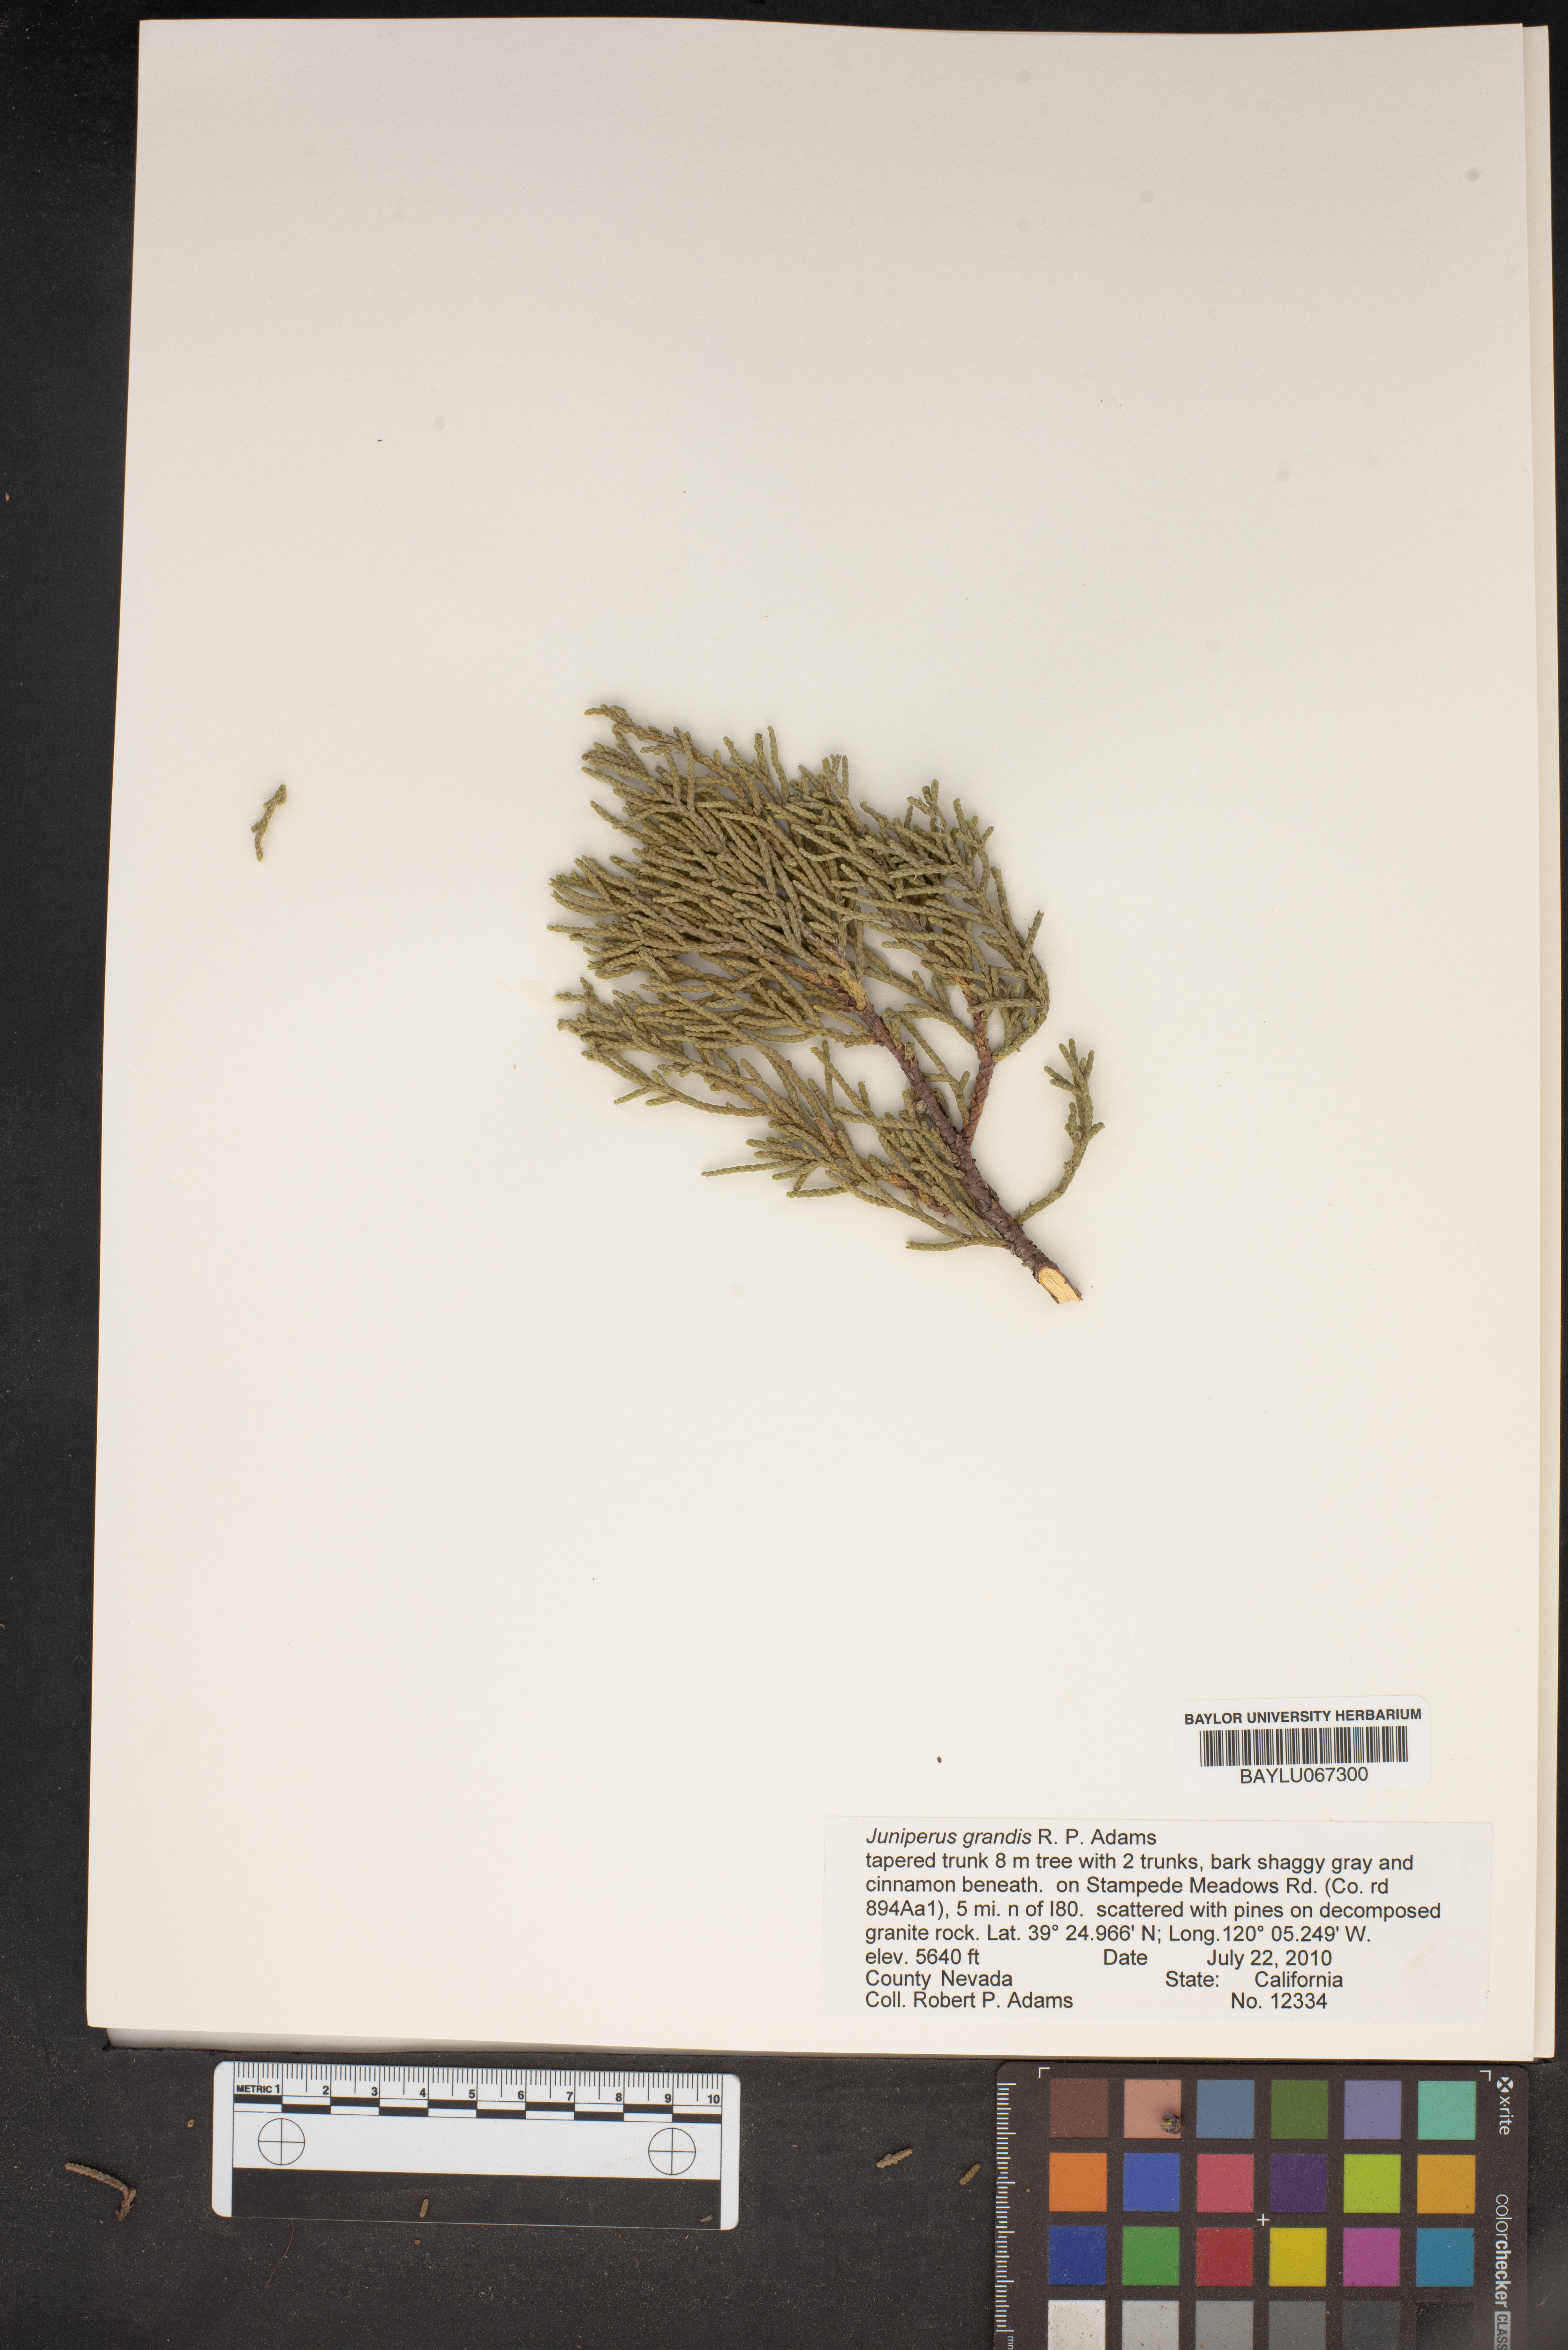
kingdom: Plantae
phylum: Tracheophyta
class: Pinopsida
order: Pinales
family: Cupressaceae
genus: Juniperus
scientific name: Juniperus occidentalis
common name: Western juniper
